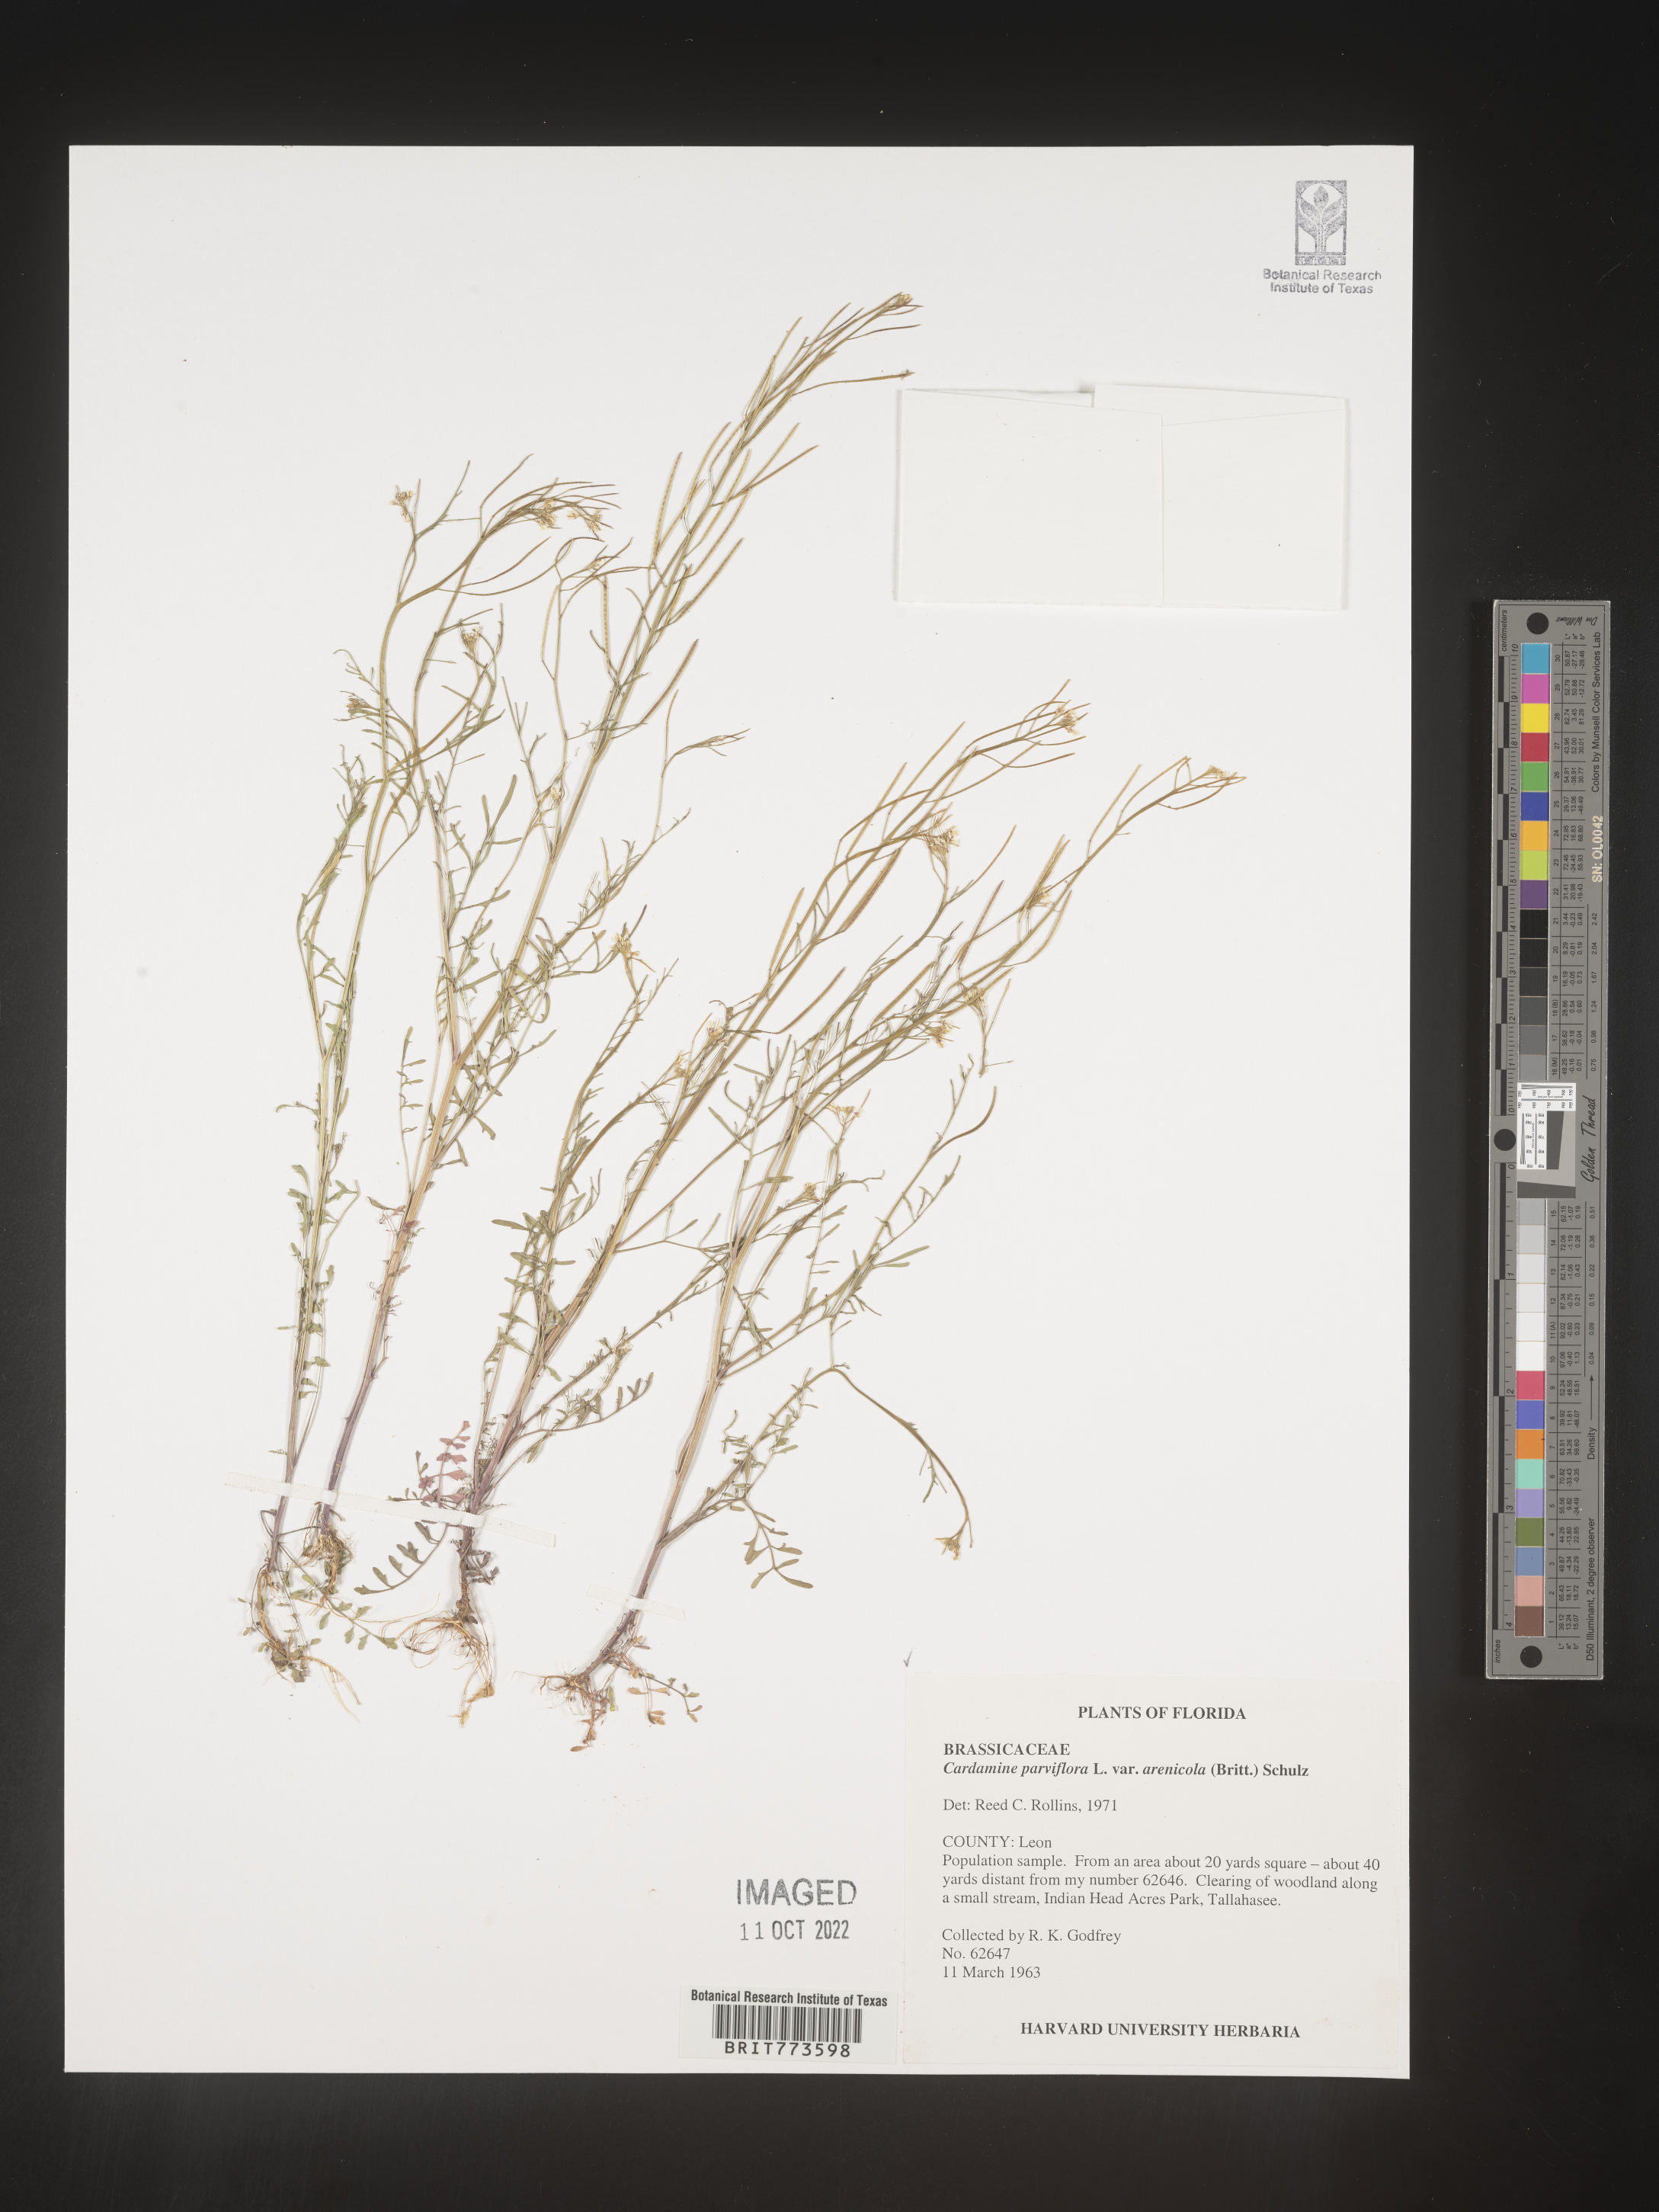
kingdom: Plantae
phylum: Tracheophyta
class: Magnoliopsida
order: Brassicales
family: Brassicaceae
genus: Cardamine
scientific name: Cardamine parviflora
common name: Sand bittercress
